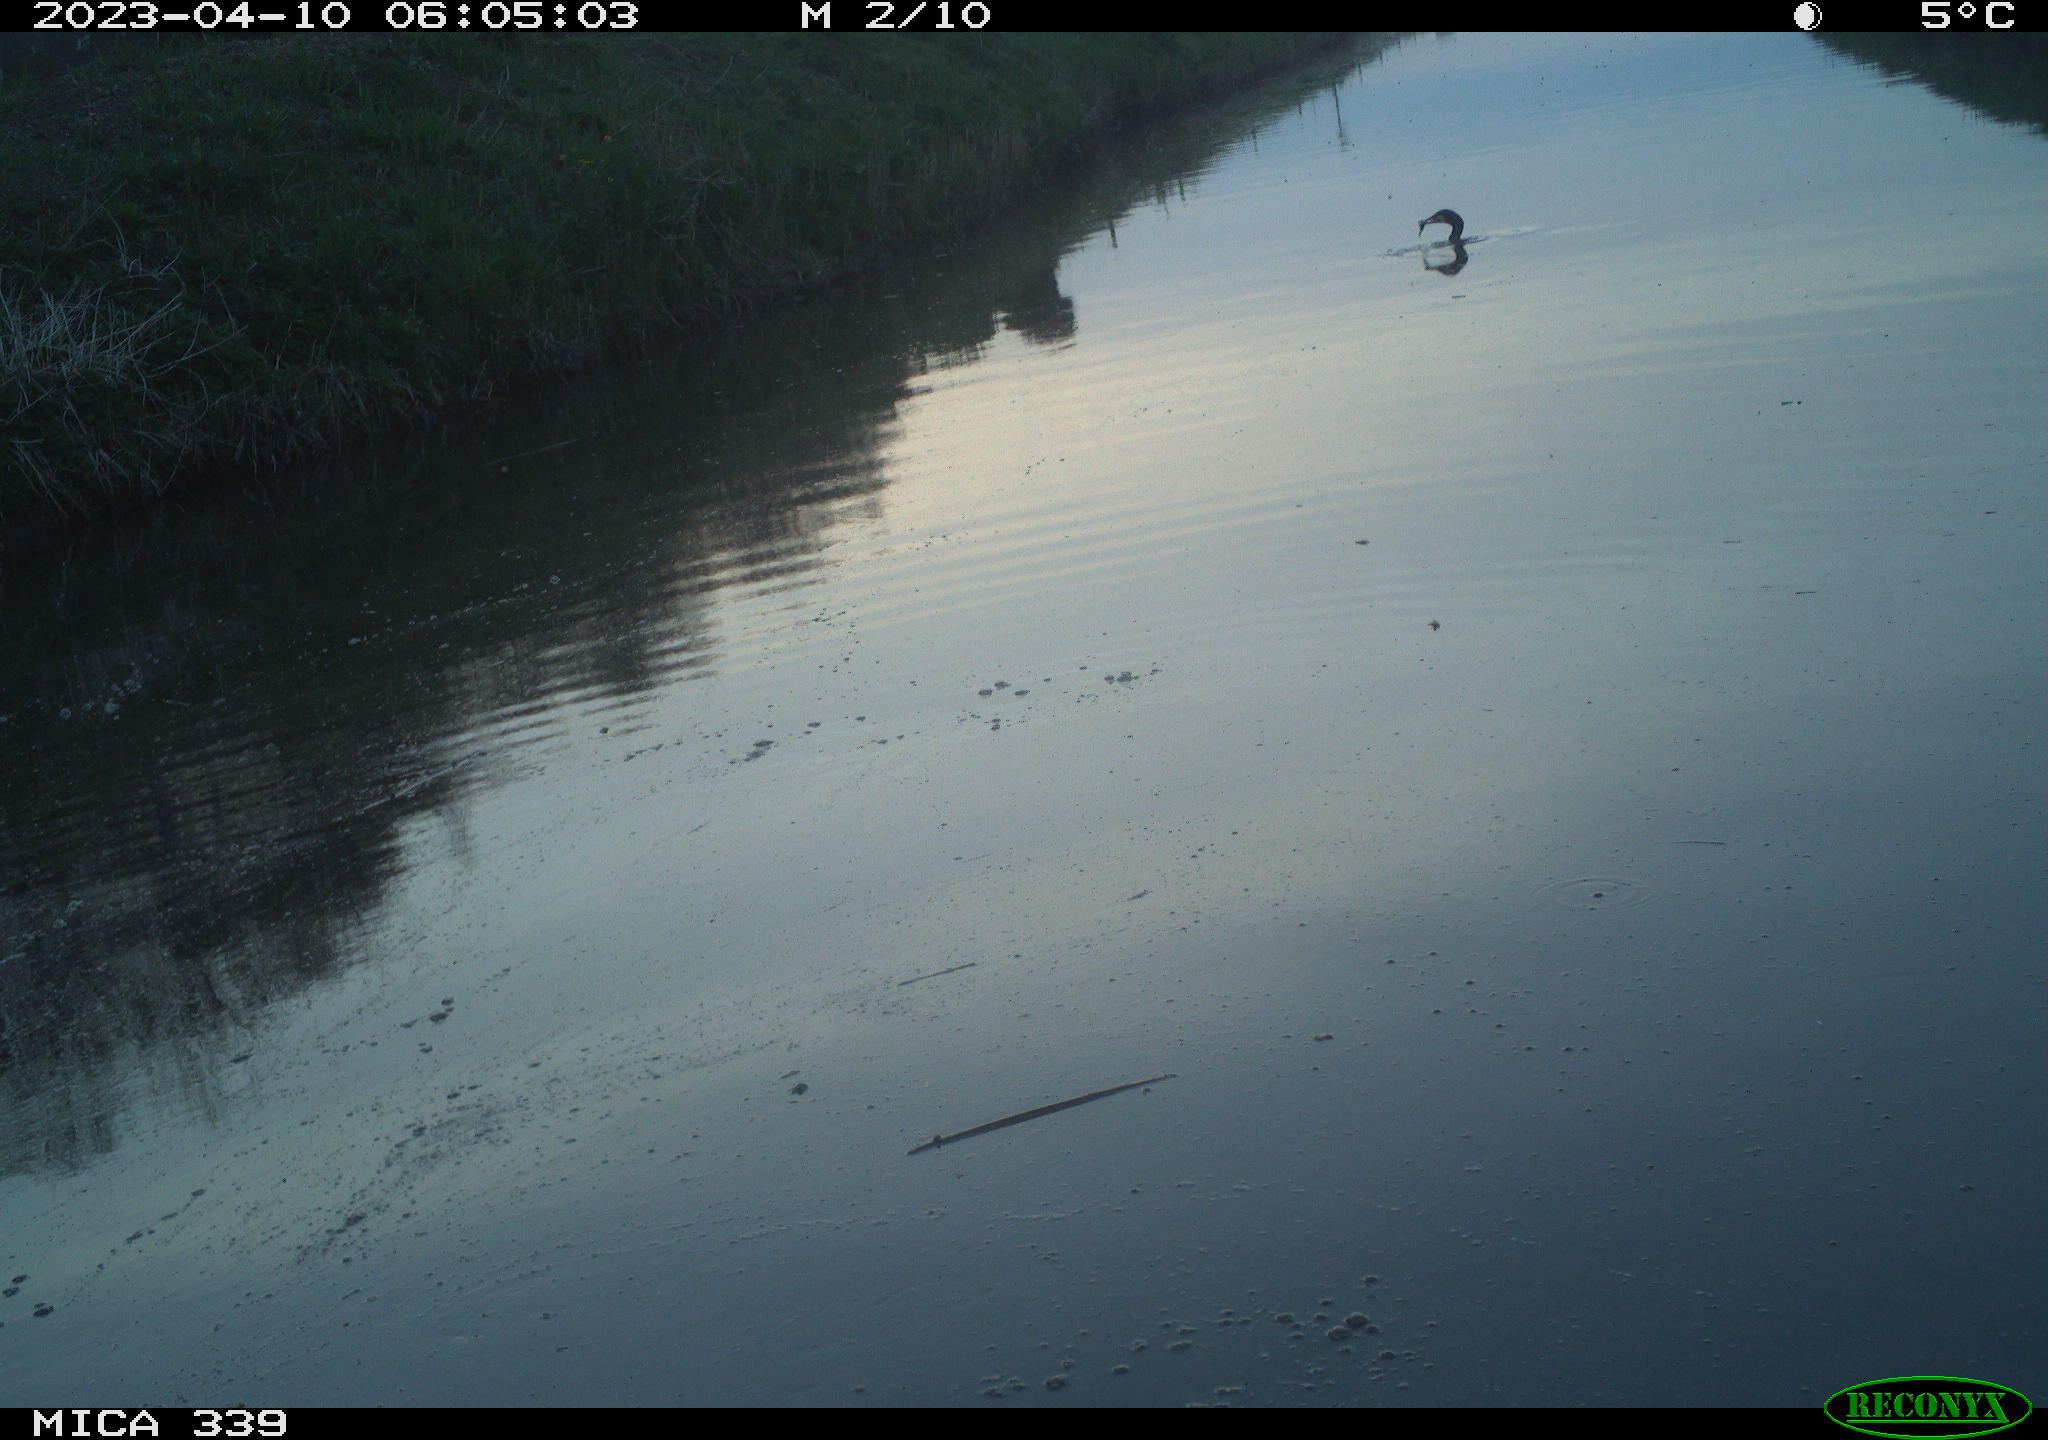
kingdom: Animalia
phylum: Chordata
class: Aves
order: Suliformes
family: Phalacrocoracidae
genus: Phalacrocorax
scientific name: Phalacrocorax carbo
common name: Great cormorant
